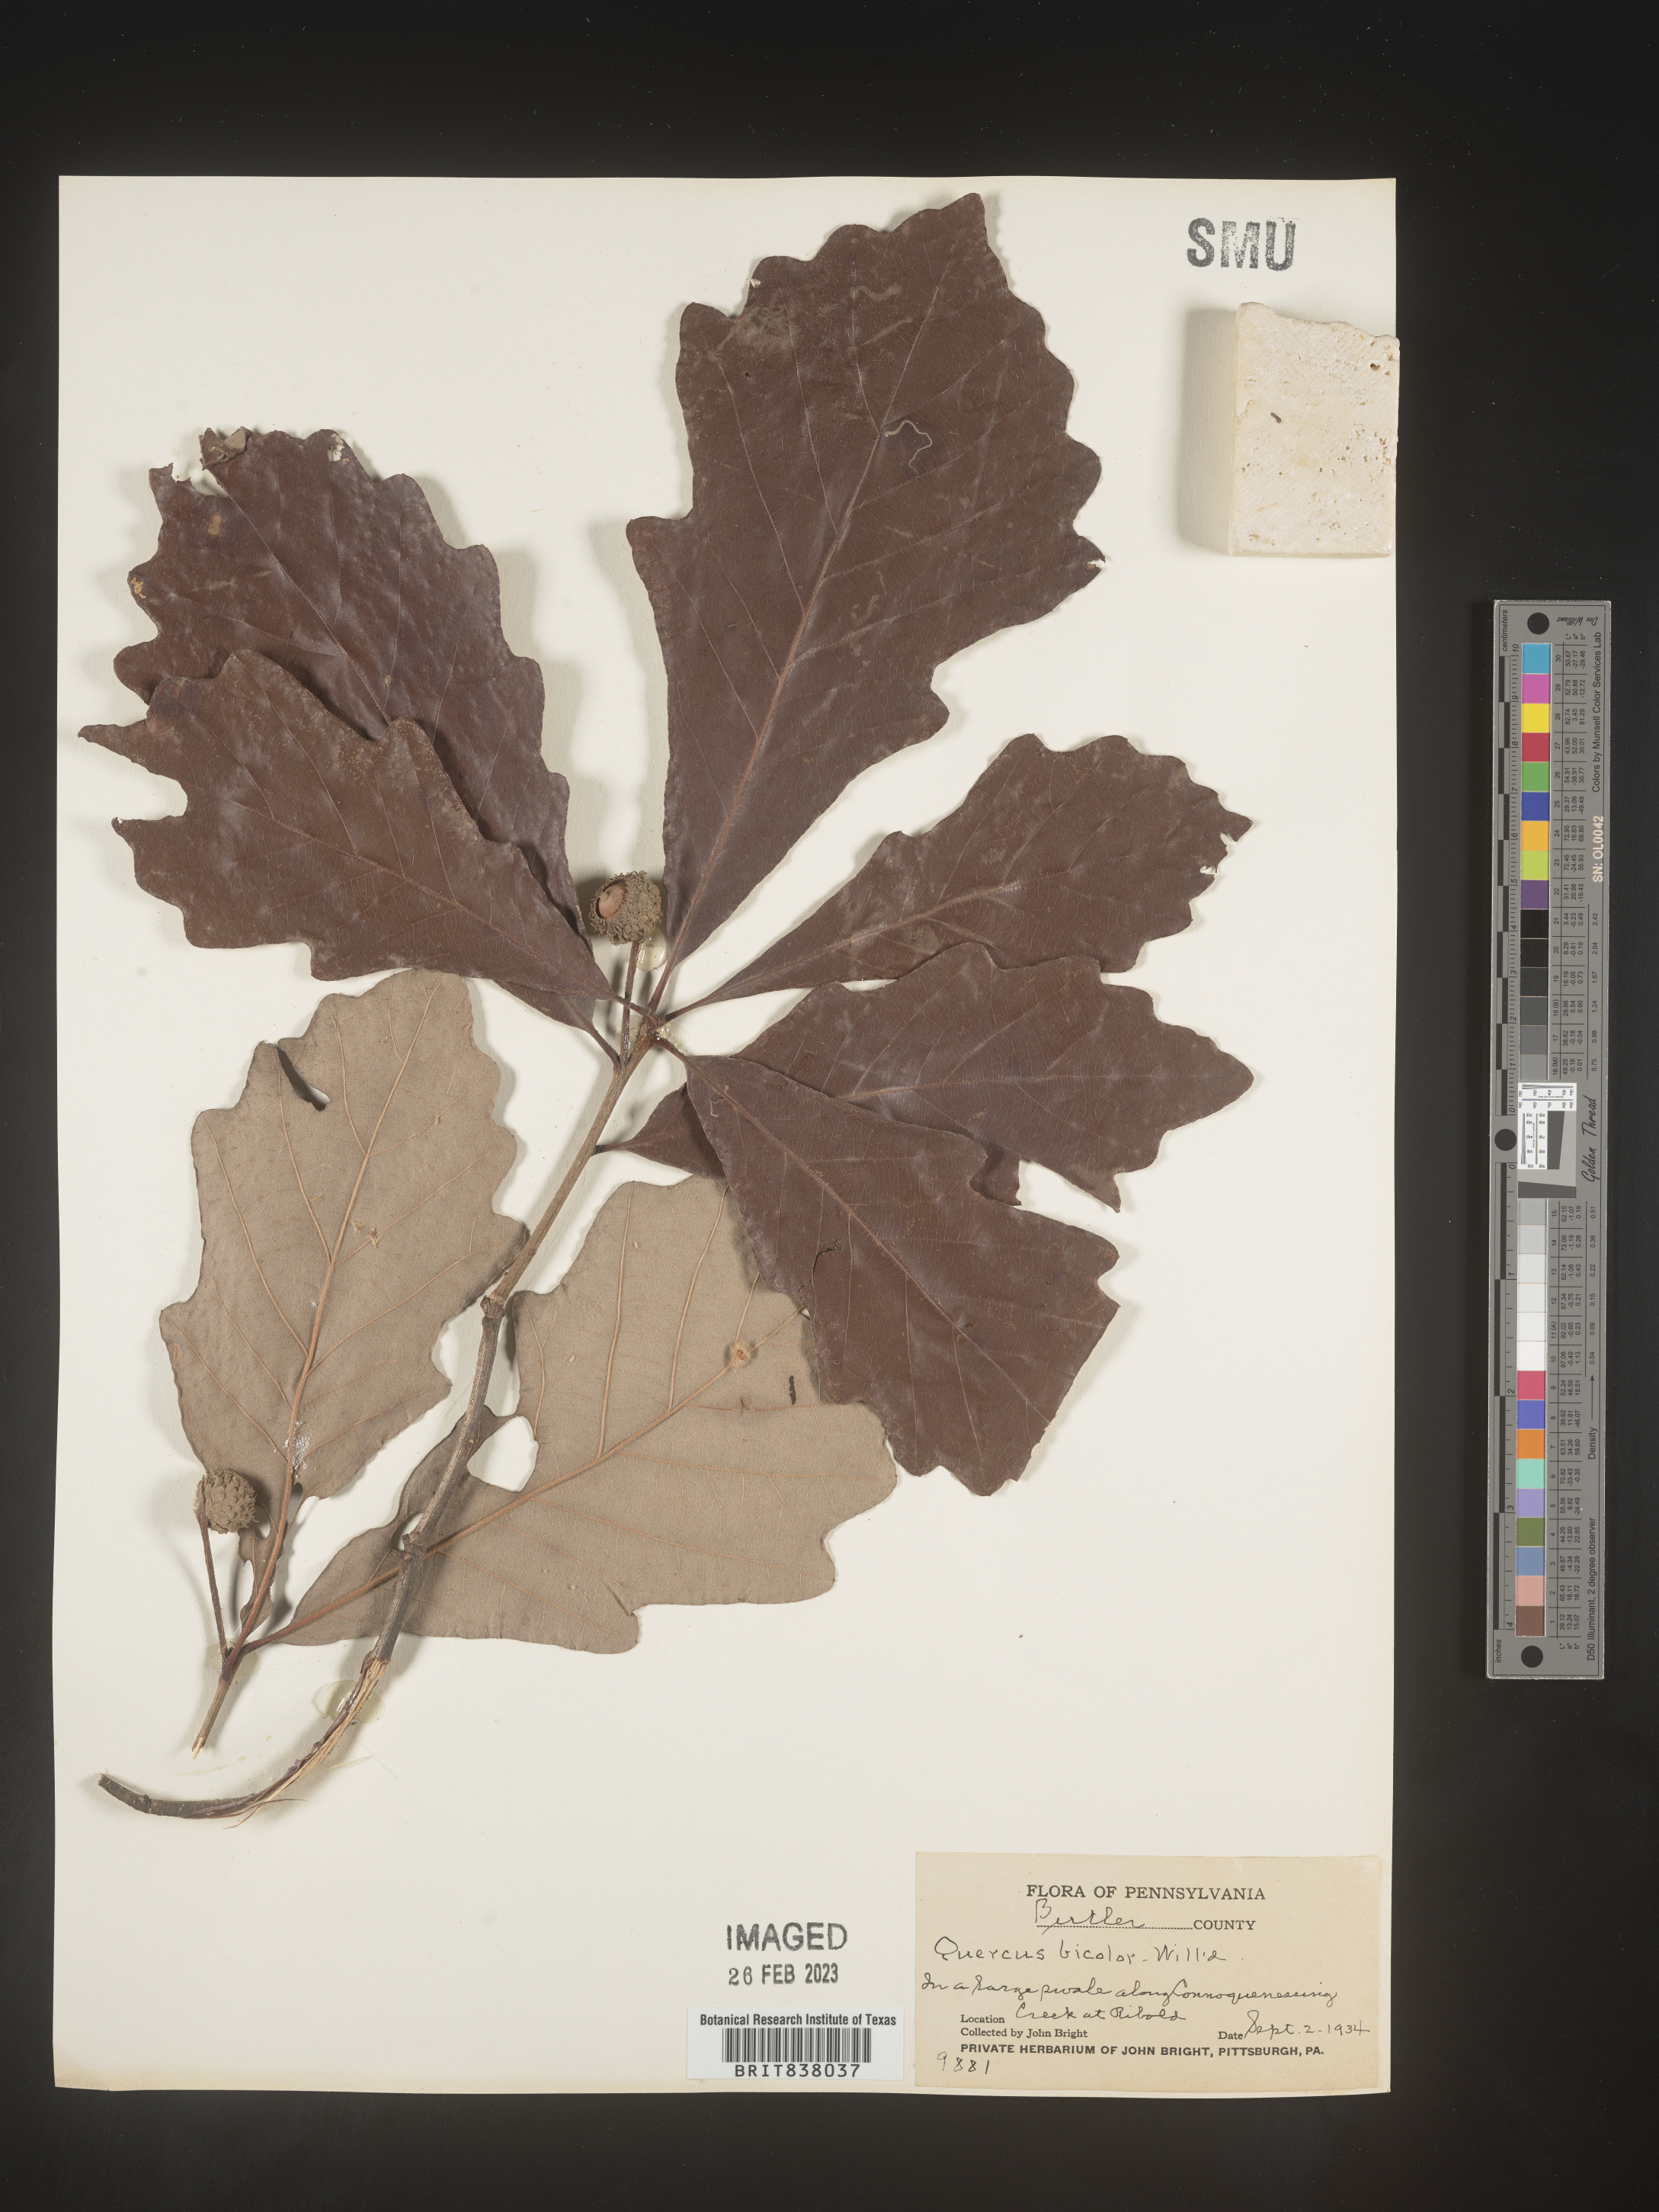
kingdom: Plantae
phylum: Tracheophyta
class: Magnoliopsida
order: Fagales
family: Fagaceae
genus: Quercus
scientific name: Quercus bicolor
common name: Swamp white oak
